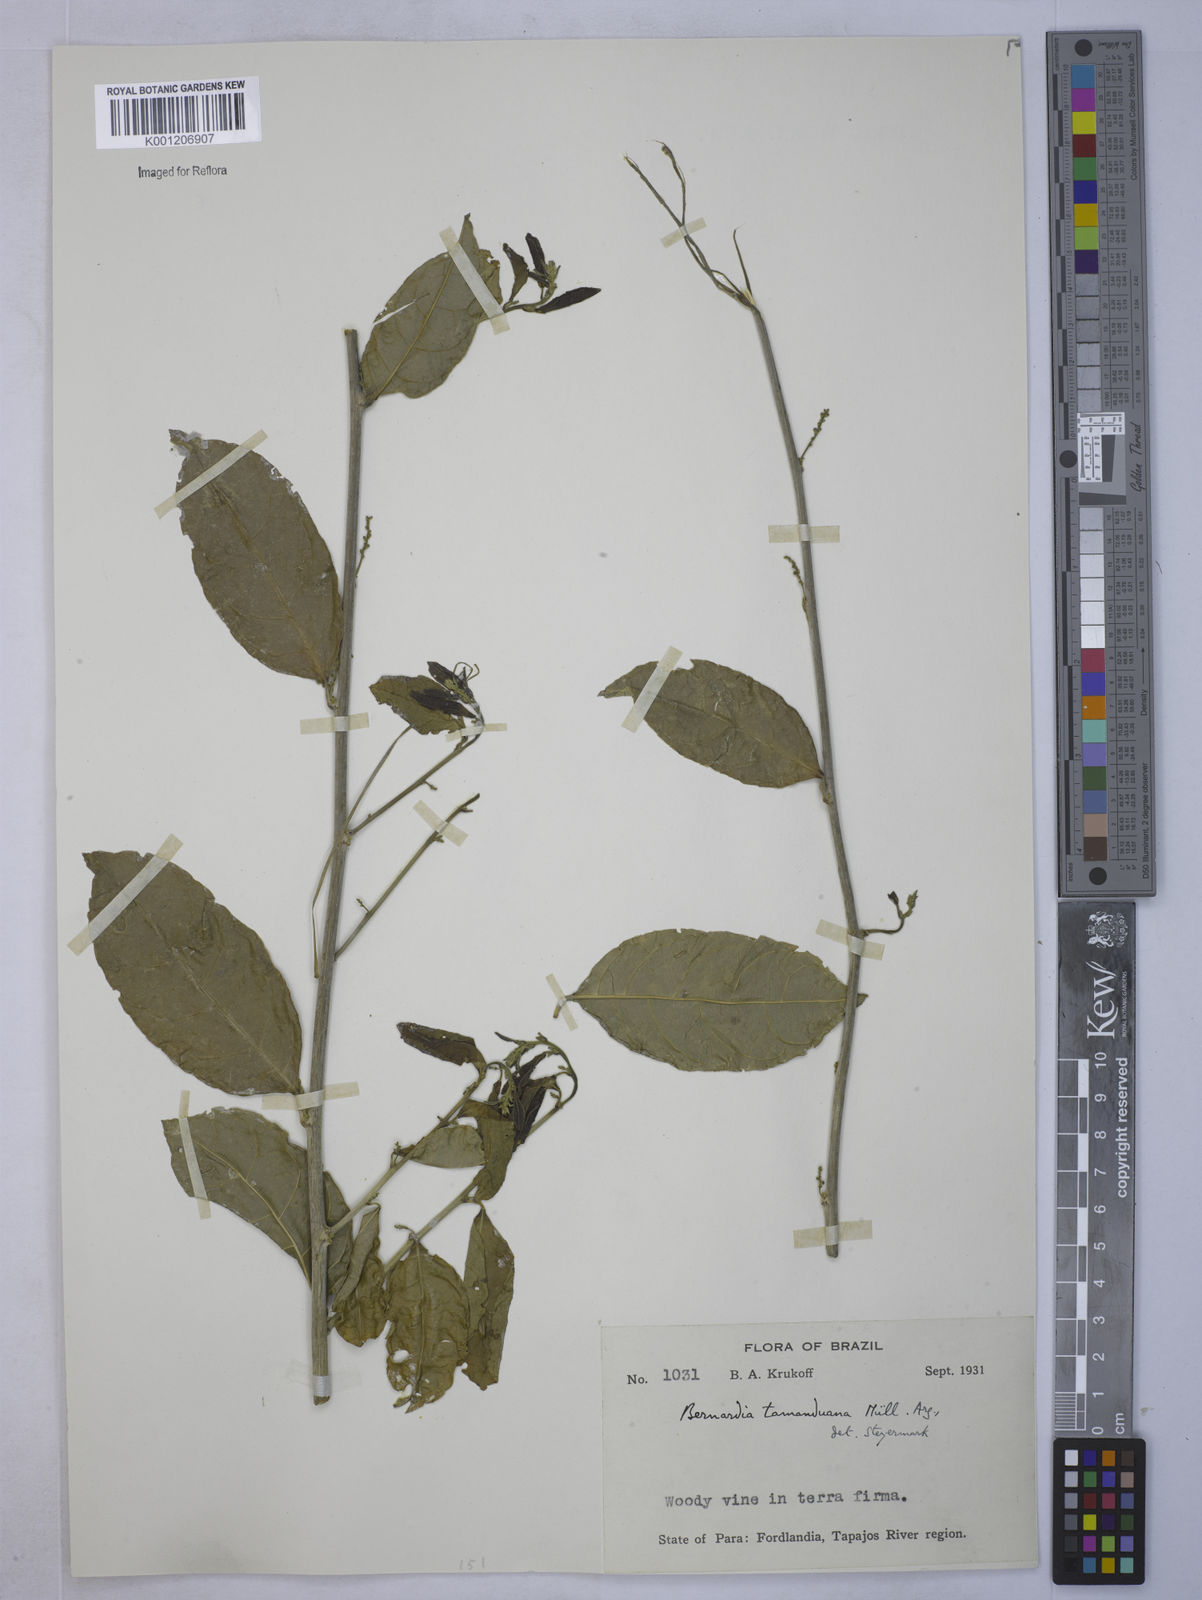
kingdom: Plantae
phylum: Tracheophyta
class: Magnoliopsida
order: Malpighiales
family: Euphorbiaceae
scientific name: Euphorbiaceae
